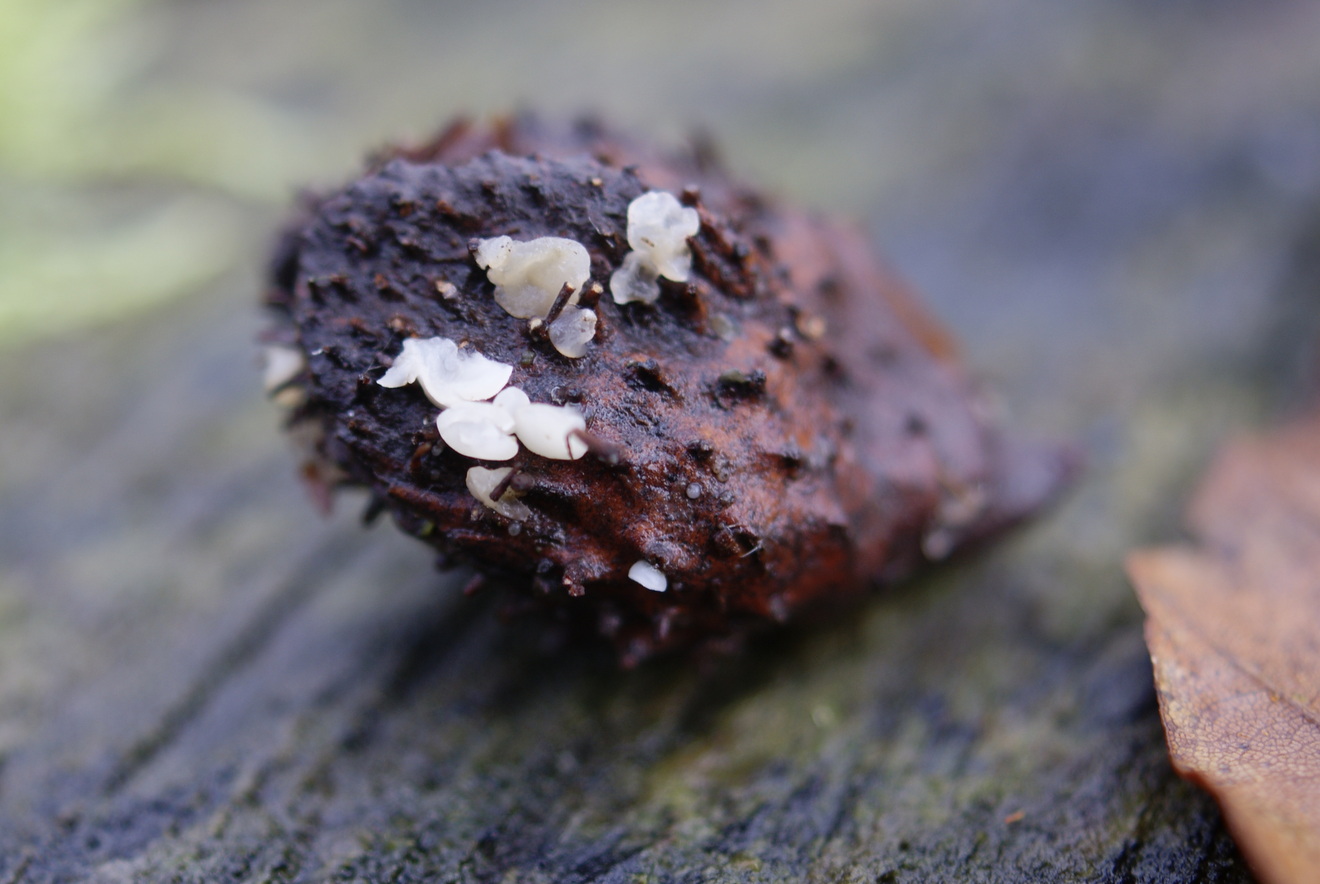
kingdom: Fungi
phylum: Ascomycota
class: Leotiomycetes
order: Helotiales
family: Helotiaceae
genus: Hymenoscyphus
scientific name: Hymenoscyphus fagineus
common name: vellugtende stilkskive
